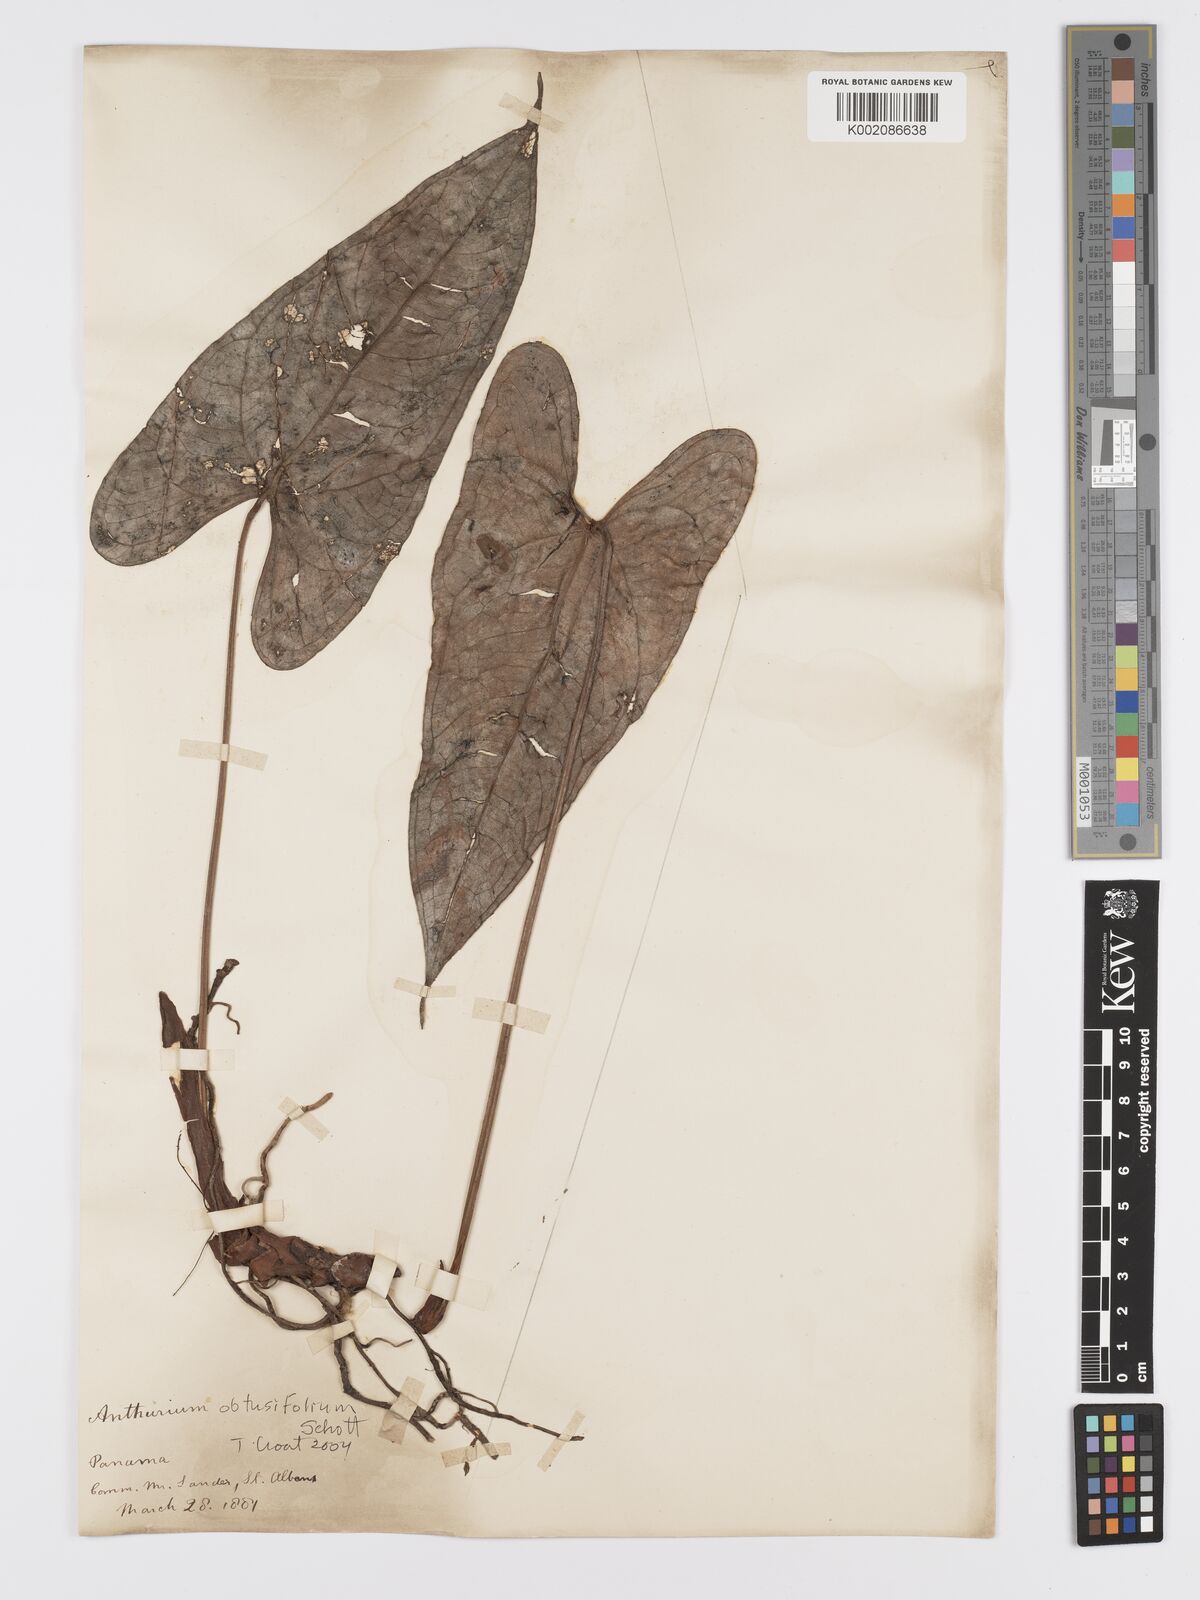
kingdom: Plantae
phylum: Tracheophyta
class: Liliopsida
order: Alismatales
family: Araceae
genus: Anthurium
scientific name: Anthurium obtusifolium
